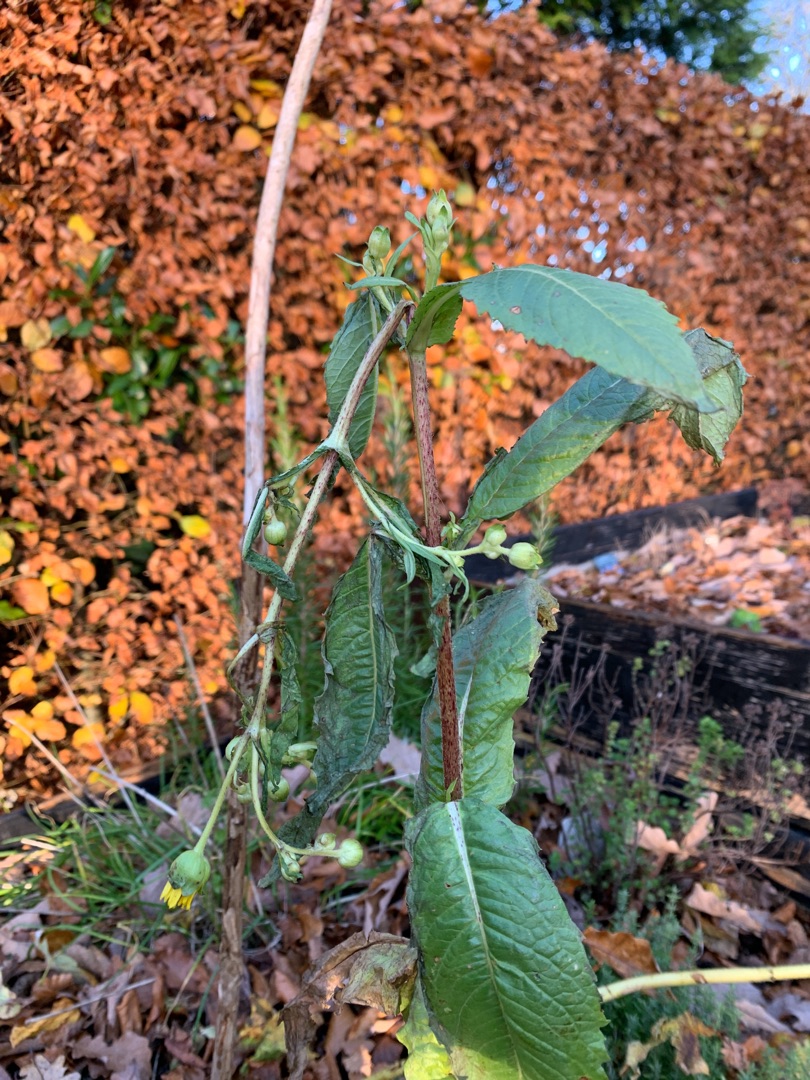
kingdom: Plantae
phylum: Tracheophyta
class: Magnoliopsida
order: Asterales
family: Asteraceae
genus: Guizotia
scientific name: Guizotia abyssinica
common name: Nigerfrø
